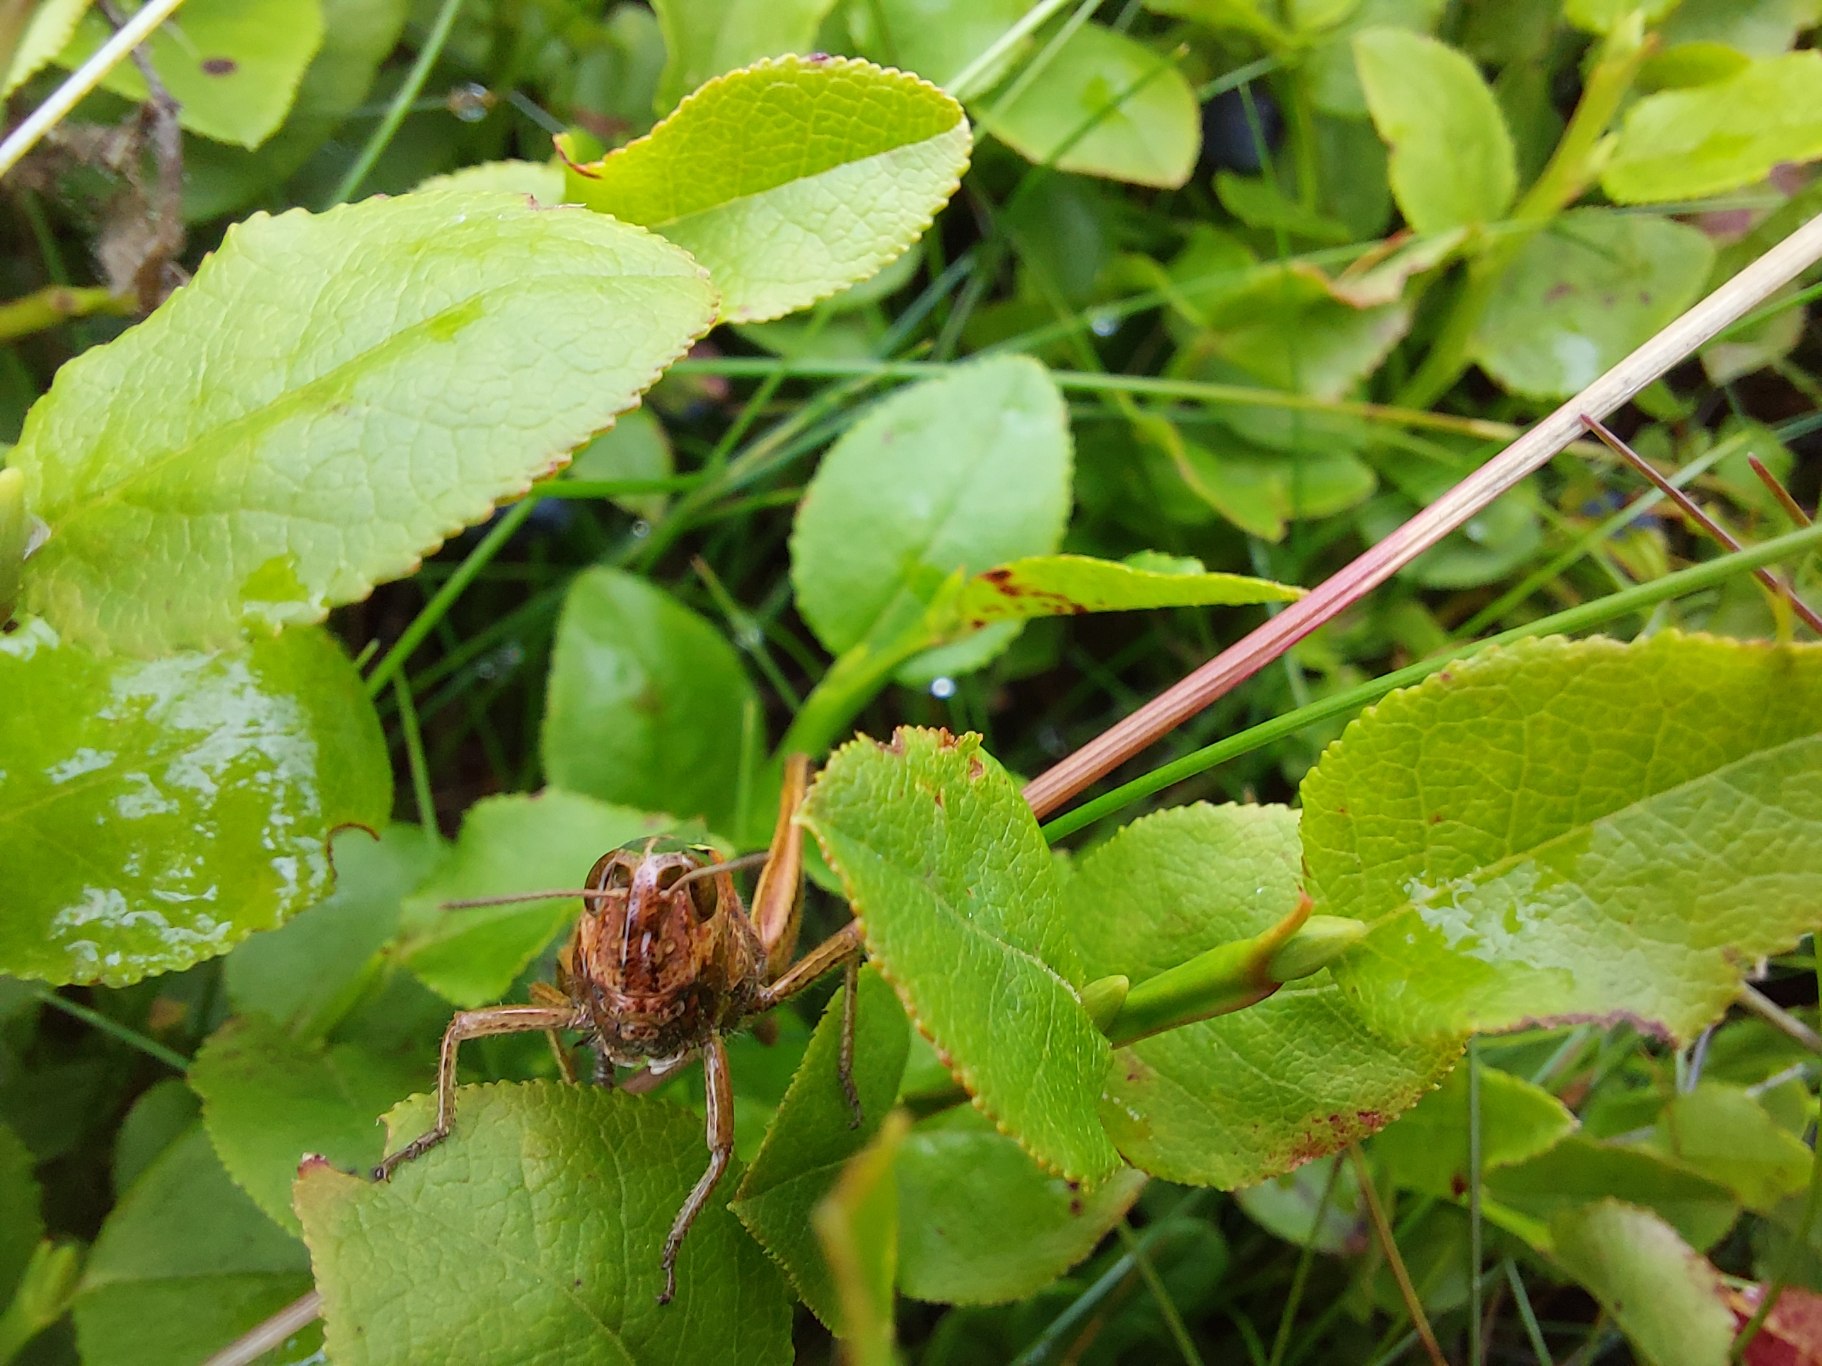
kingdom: Plantae
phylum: Tracheophyta
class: Magnoliopsida
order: Ericales
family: Ericaceae
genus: Vaccinium
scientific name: Vaccinium myrtillus
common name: Blåbær
